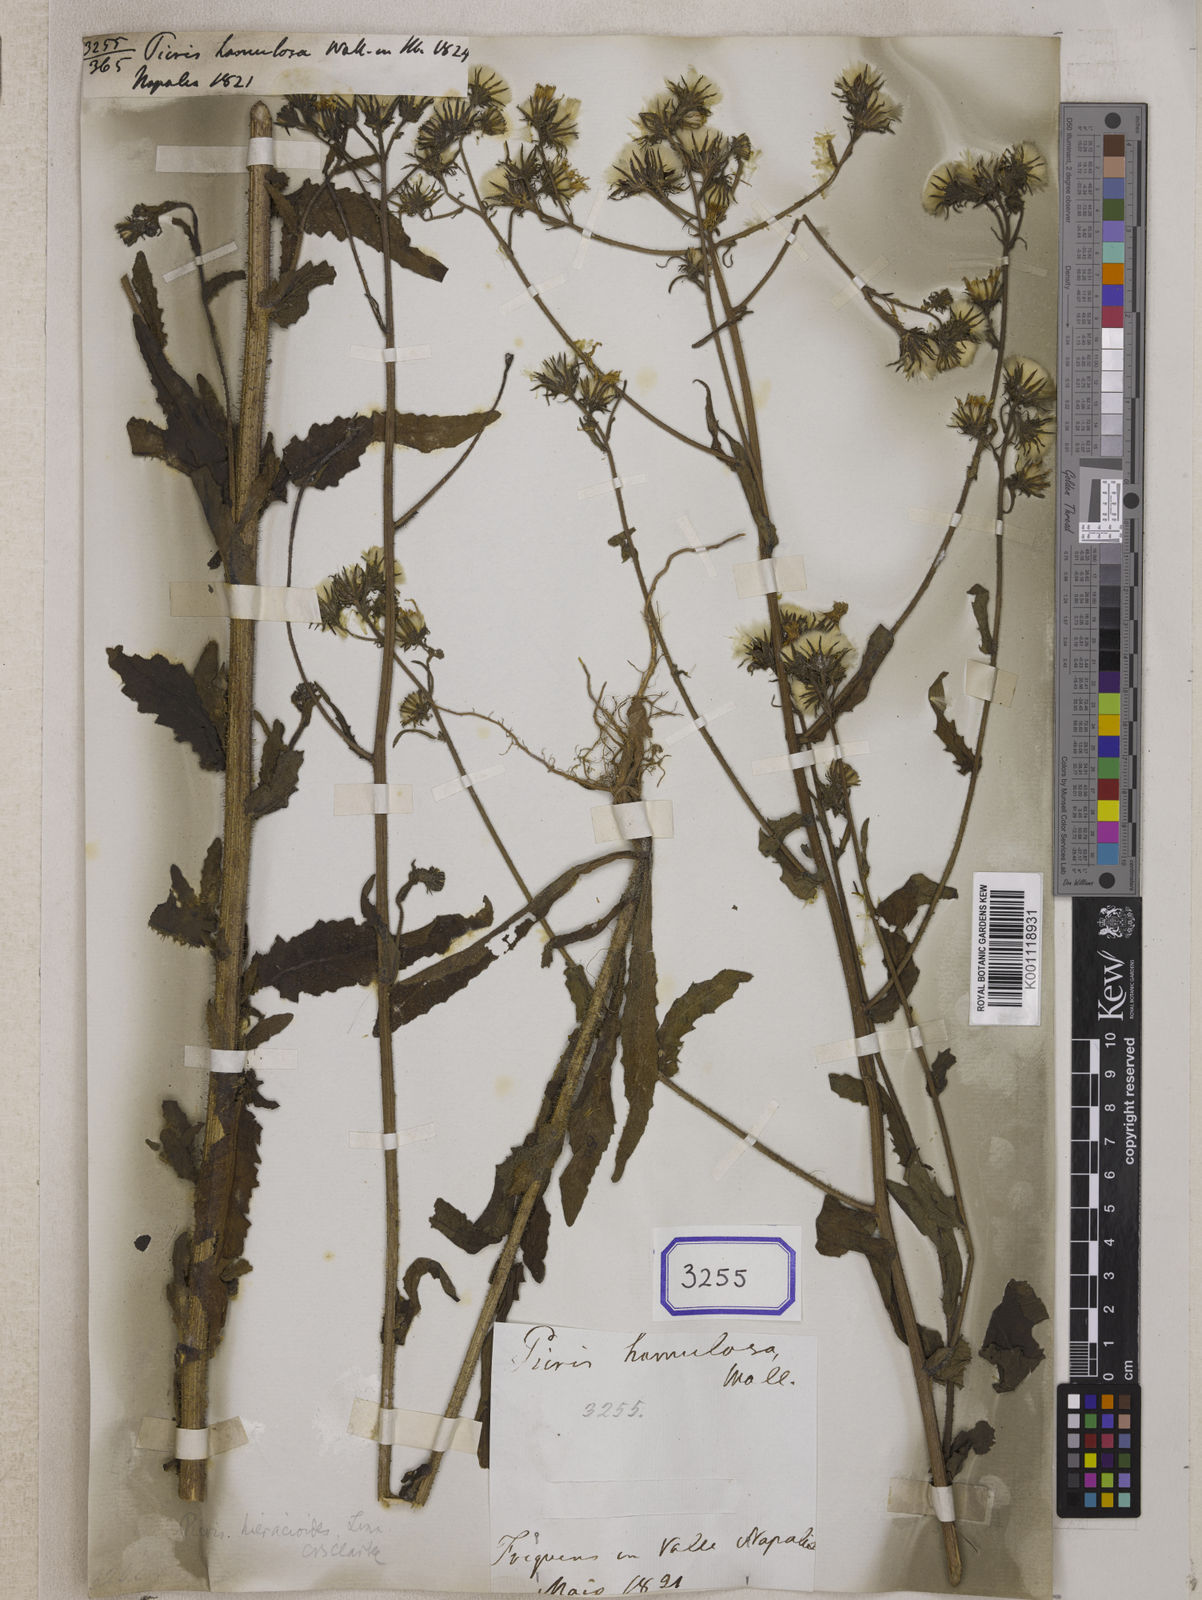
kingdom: Plantae
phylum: Tracheophyta
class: Magnoliopsida
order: Asterales
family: Asteraceae
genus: Picris
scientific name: Picris hieracioides
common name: Hawkweed oxtongue
